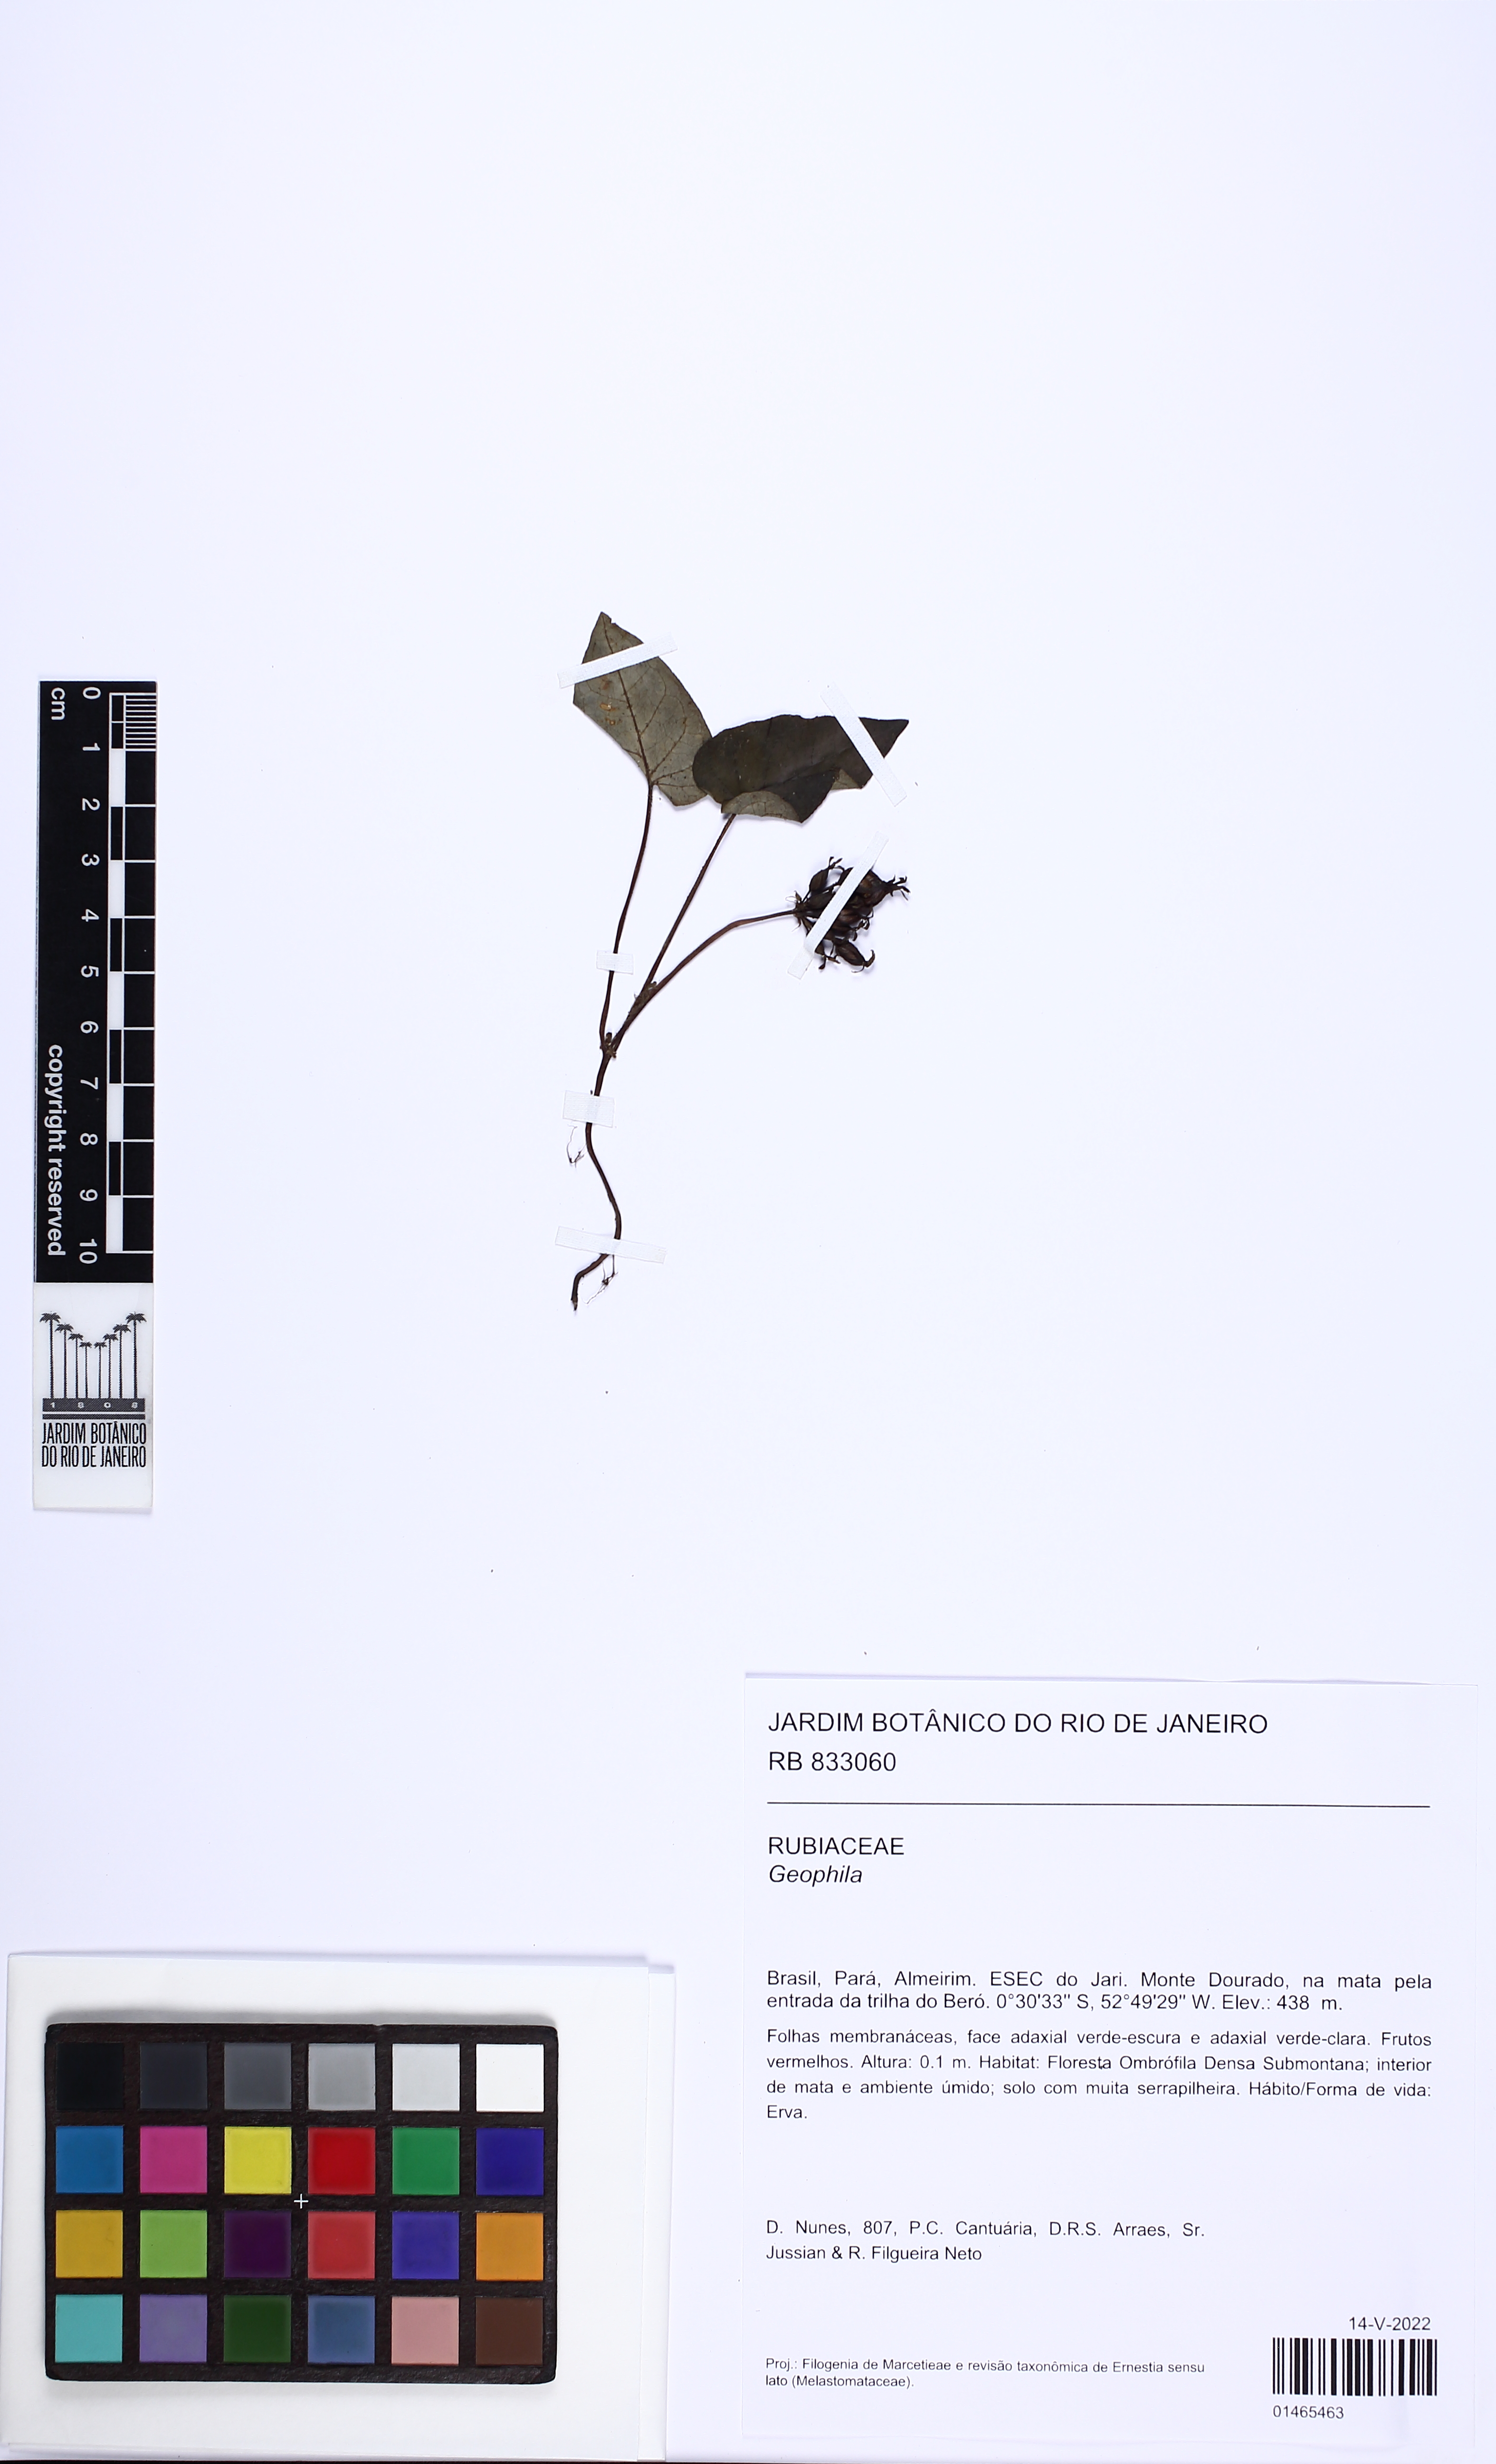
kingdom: Plantae
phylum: Tracheophyta
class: Magnoliopsida
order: Gentianales
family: Rubiaceae
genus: Geophila
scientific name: Geophila repens
